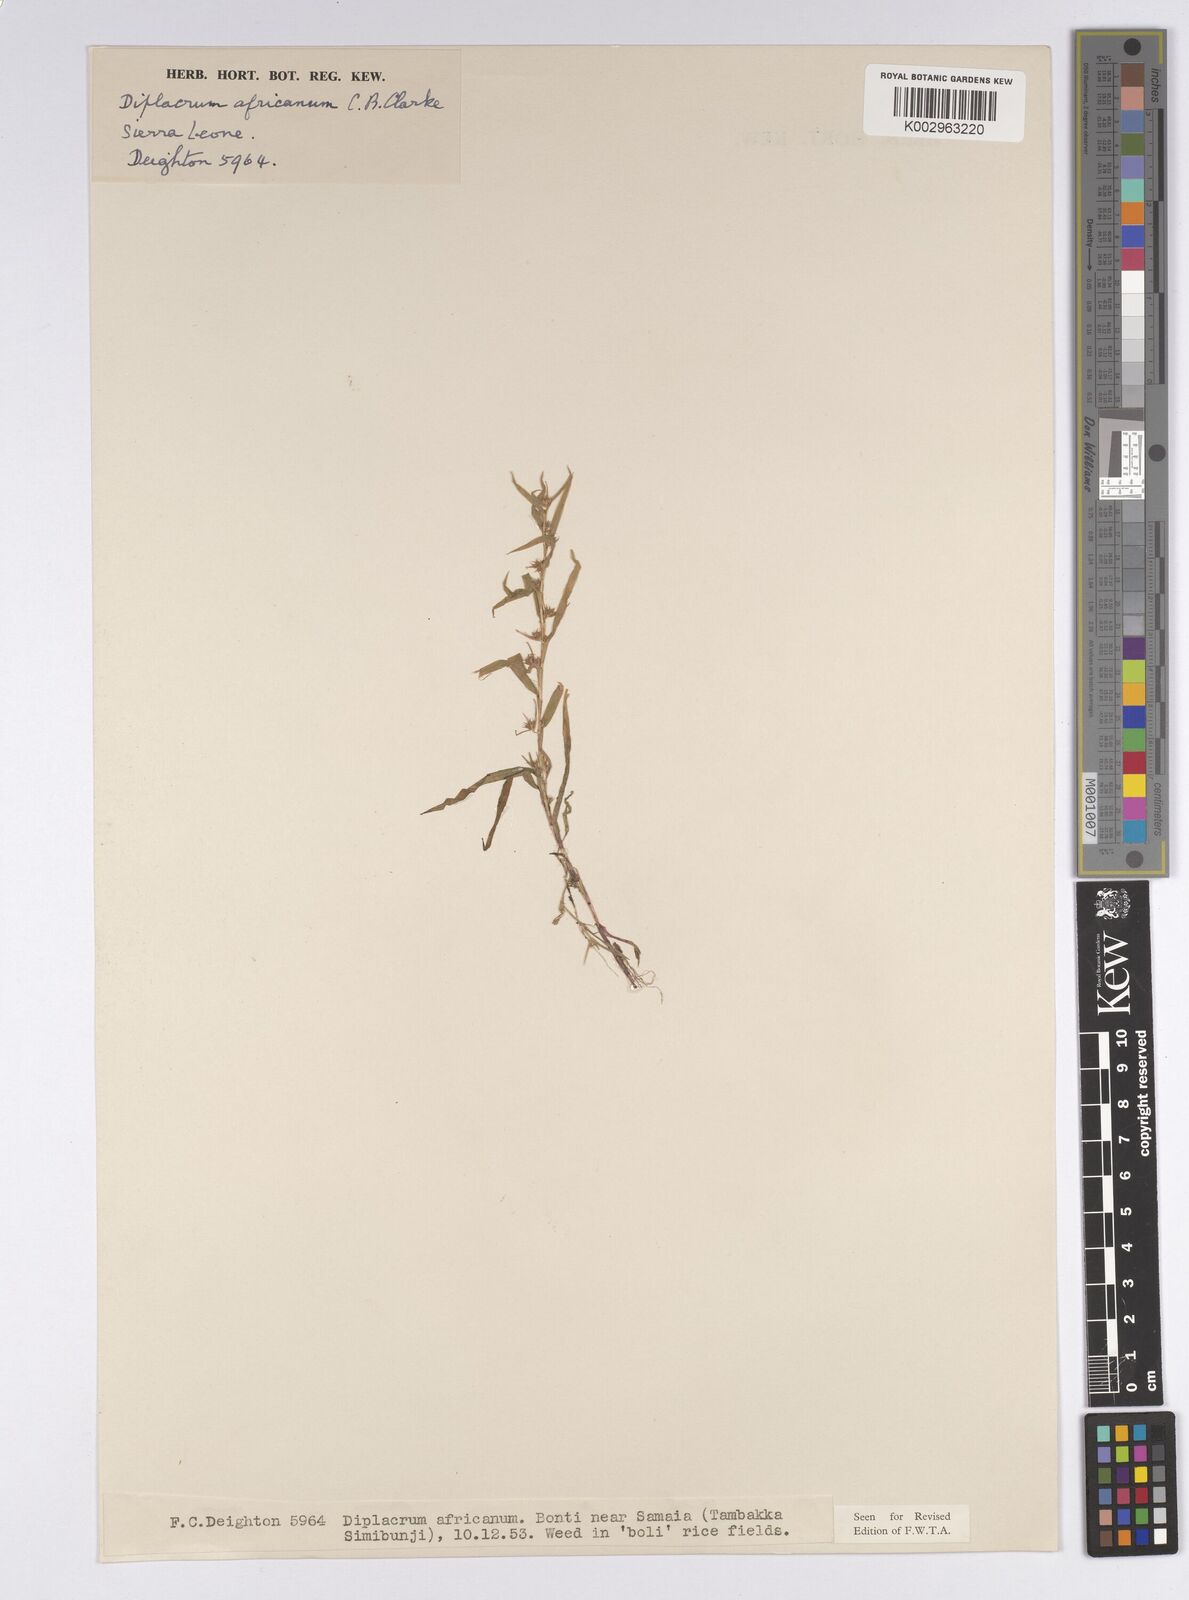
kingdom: Plantae
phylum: Tracheophyta
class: Liliopsida
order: Poales
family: Cyperaceae
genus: Diplacrum
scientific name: Diplacrum africanum
